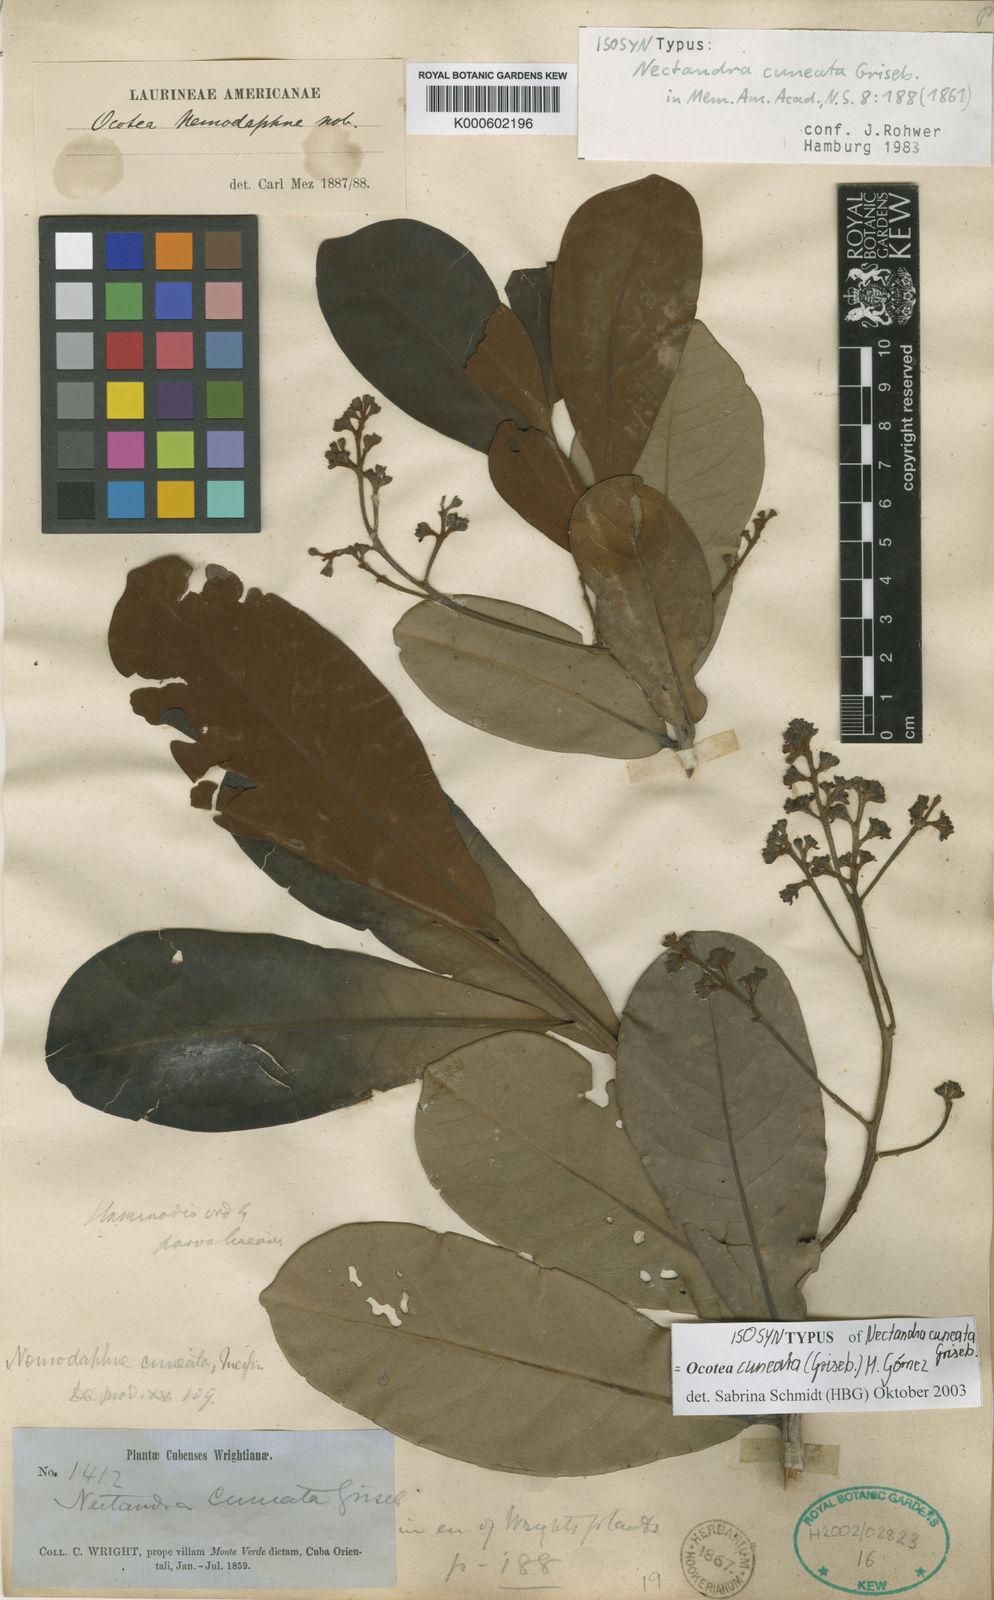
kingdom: Plantae
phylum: Tracheophyta
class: Magnoliopsida
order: Laurales
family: Lauraceae
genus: Ocotea
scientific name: Ocotea
